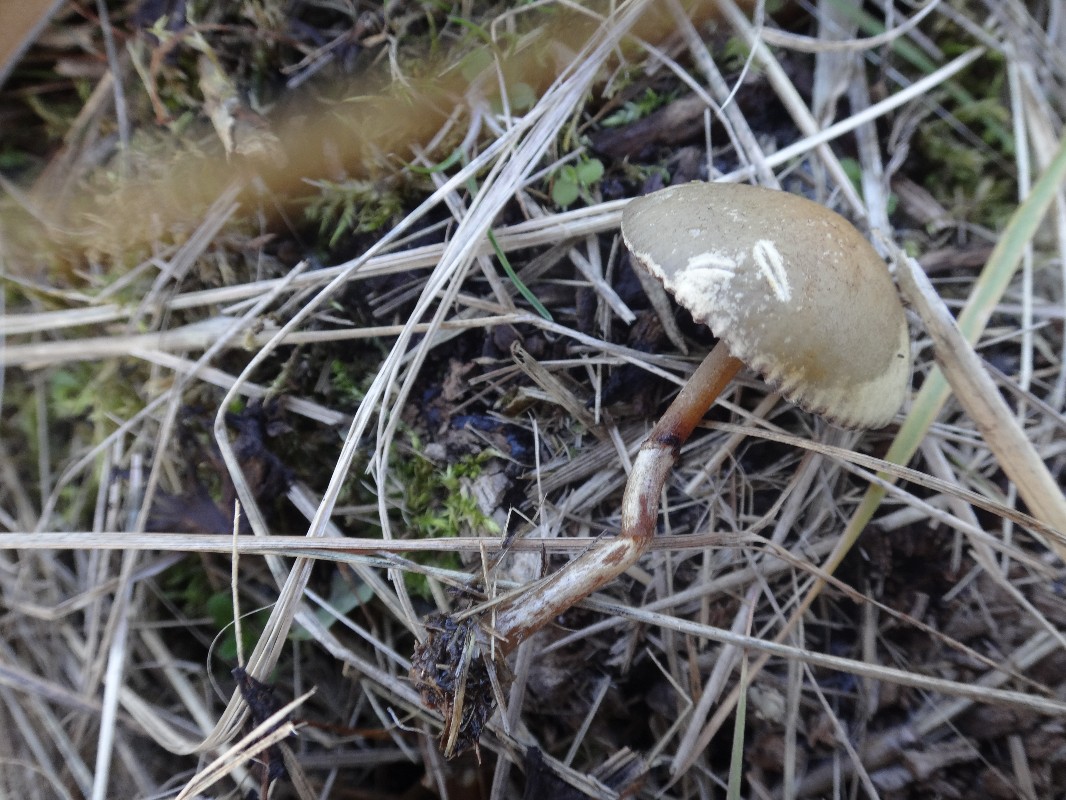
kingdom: Fungi
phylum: Basidiomycota
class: Agaricomycetes
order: Agaricales
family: Strophariaceae
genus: Protostropharia
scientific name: Protostropharia semiglobata
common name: halvkugleformet bredblad
